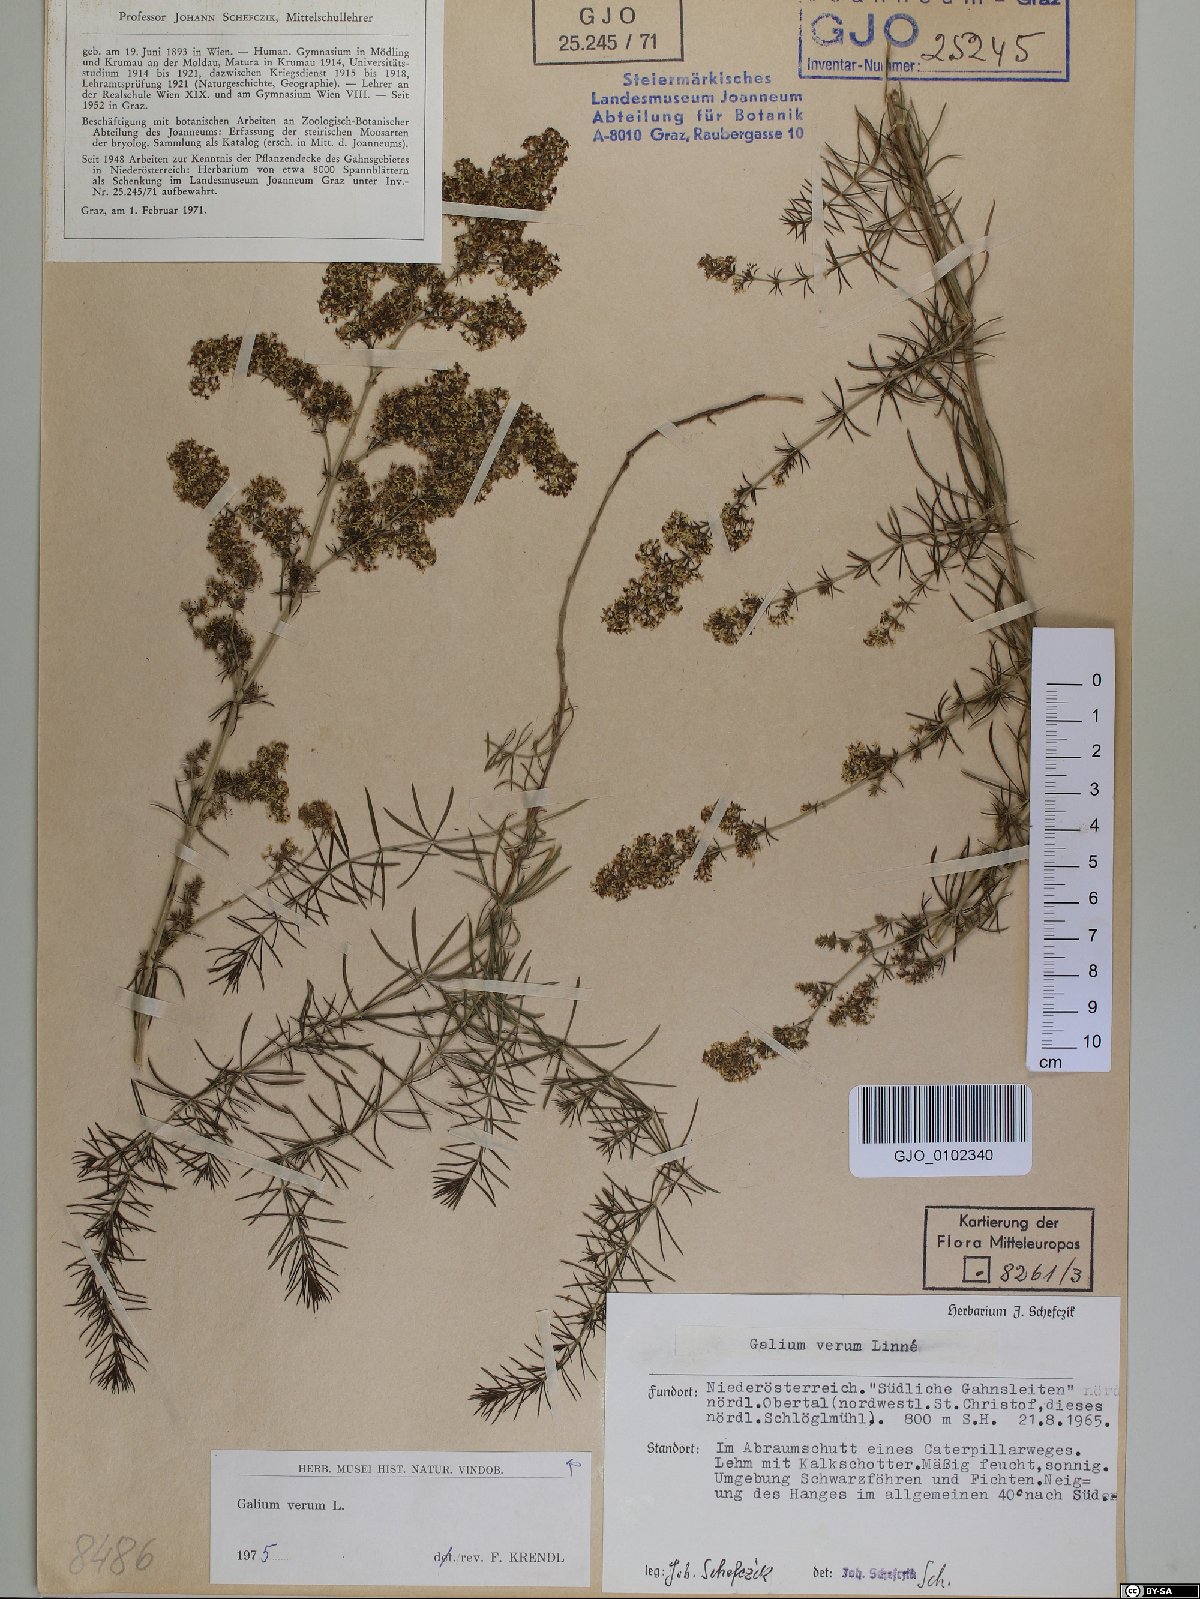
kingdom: Plantae
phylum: Tracheophyta
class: Magnoliopsida
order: Gentianales
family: Rubiaceae
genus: Galium
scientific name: Galium verum
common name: Lady's bedstraw
